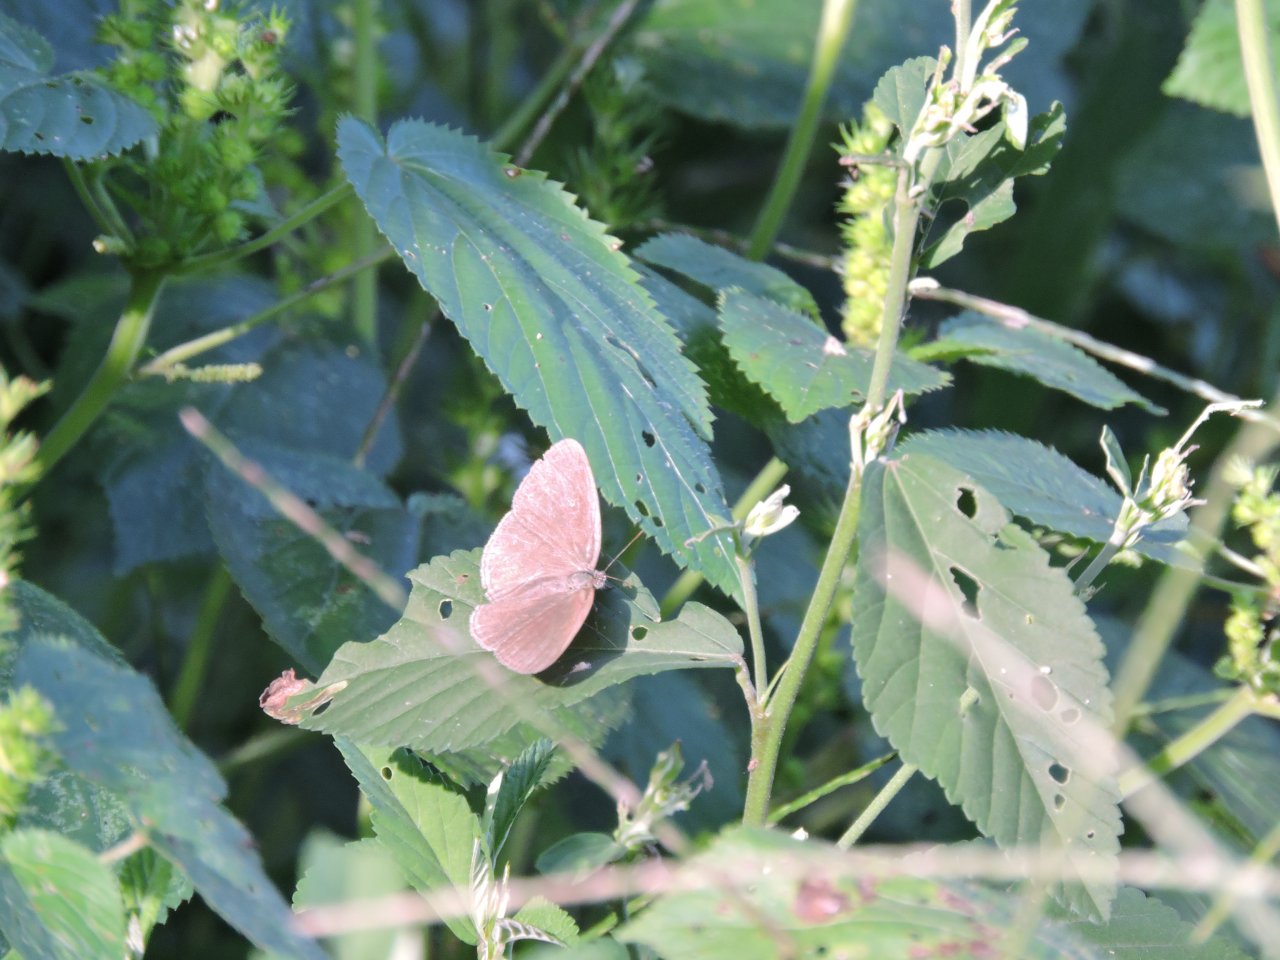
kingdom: Animalia
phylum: Arthropoda
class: Insecta
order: Lepidoptera
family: Nymphalidae
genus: Hermeuptychia
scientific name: Hermeuptychia hermes
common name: Carolina Satyr
